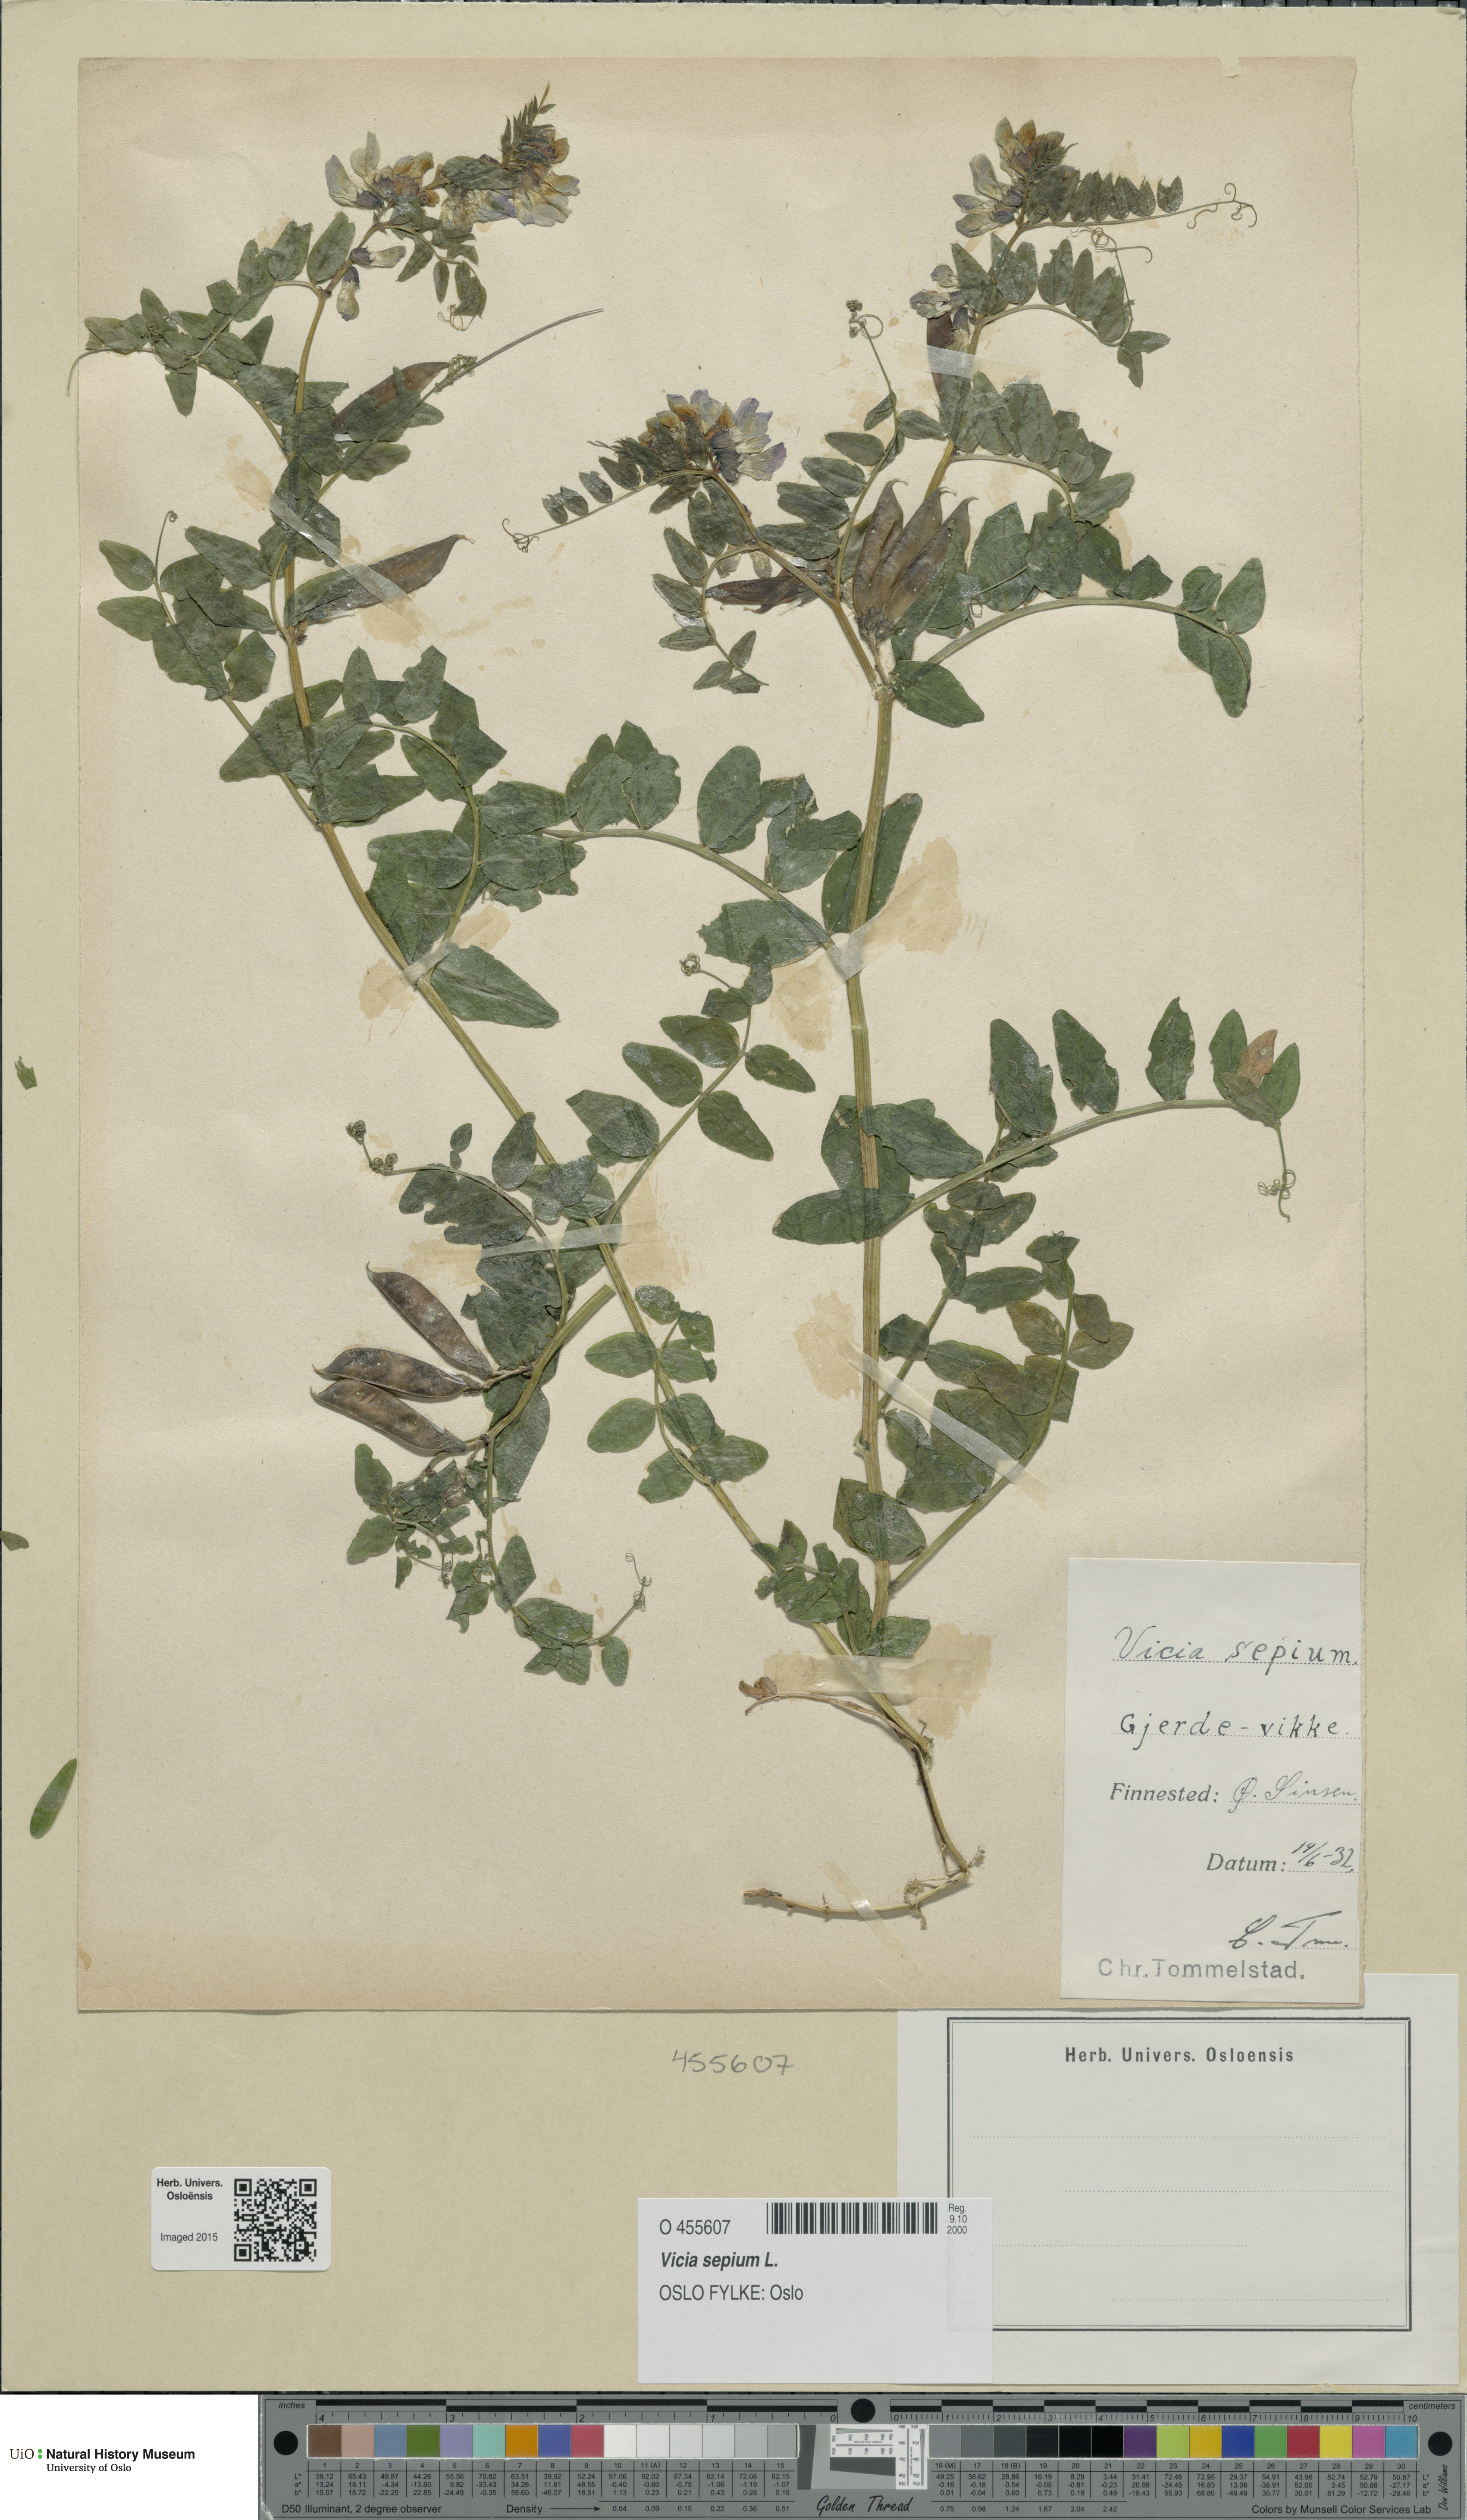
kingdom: Plantae
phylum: Tracheophyta
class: Magnoliopsida
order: Fabales
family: Fabaceae
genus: Vicia
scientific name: Vicia sepium
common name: Bush vetch
